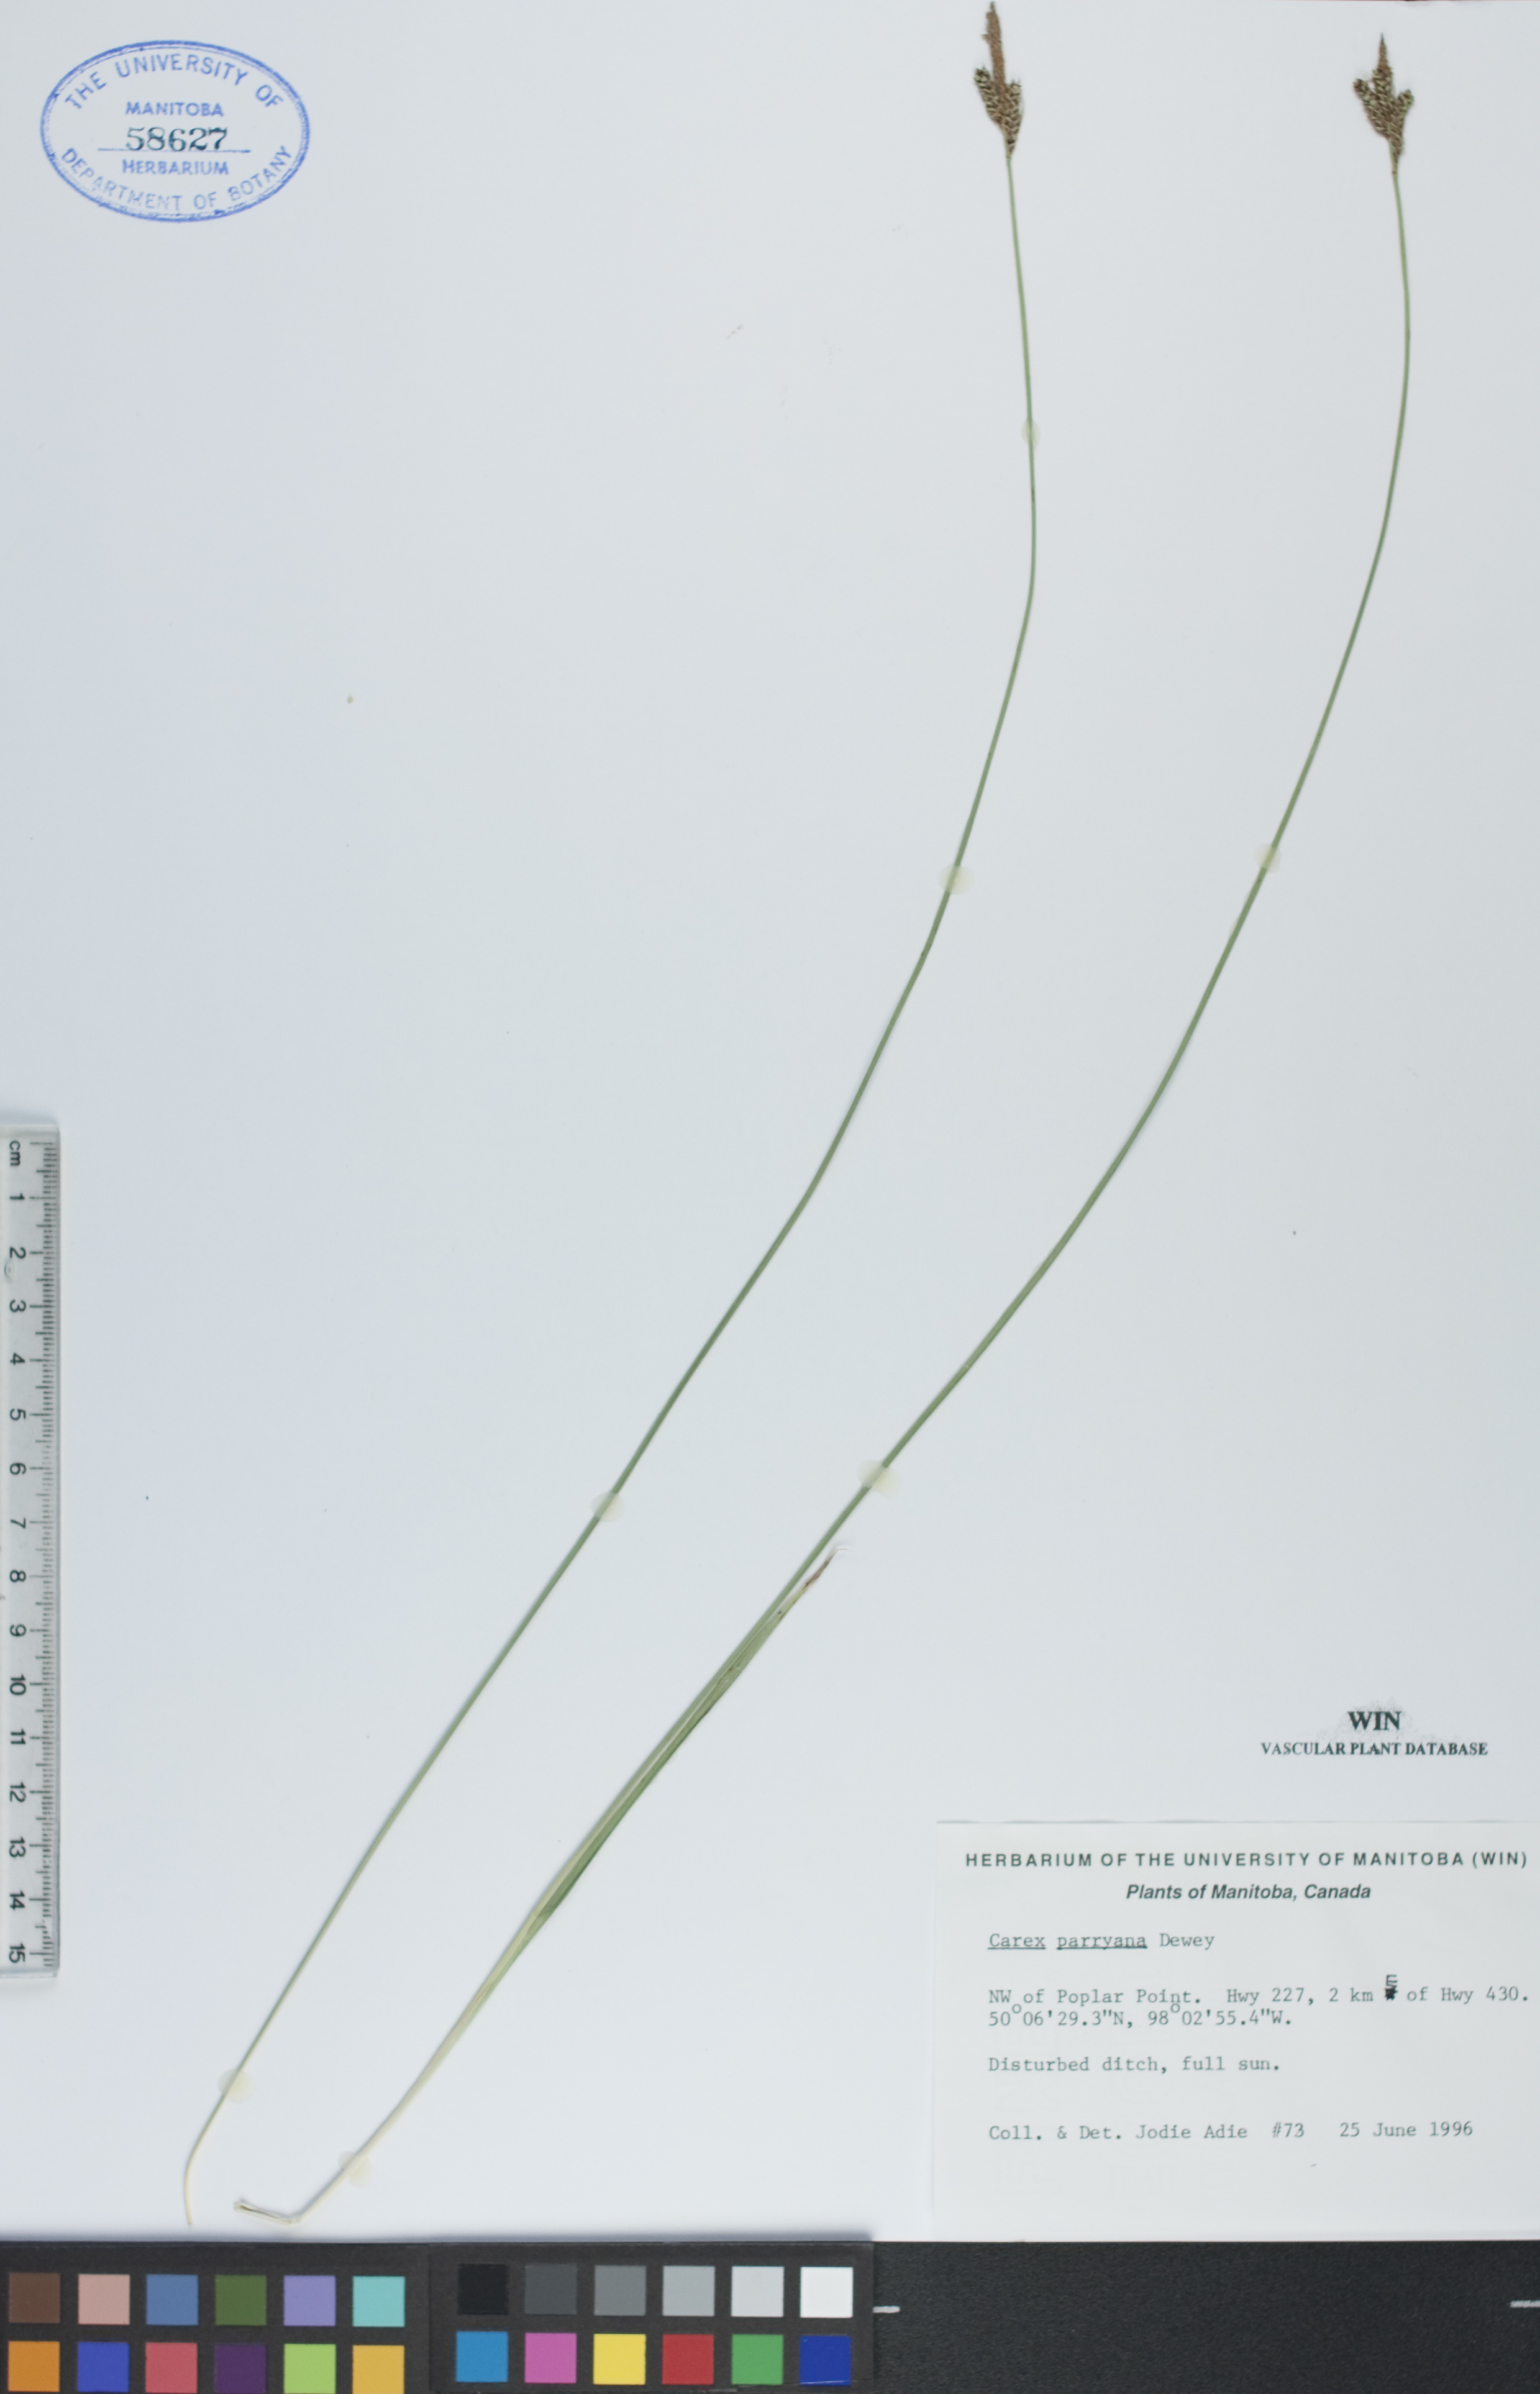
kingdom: Plantae
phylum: Tracheophyta
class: Liliopsida
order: Poales
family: Cyperaceae
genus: Carex
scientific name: Carex parryana
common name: Parry's sedge
